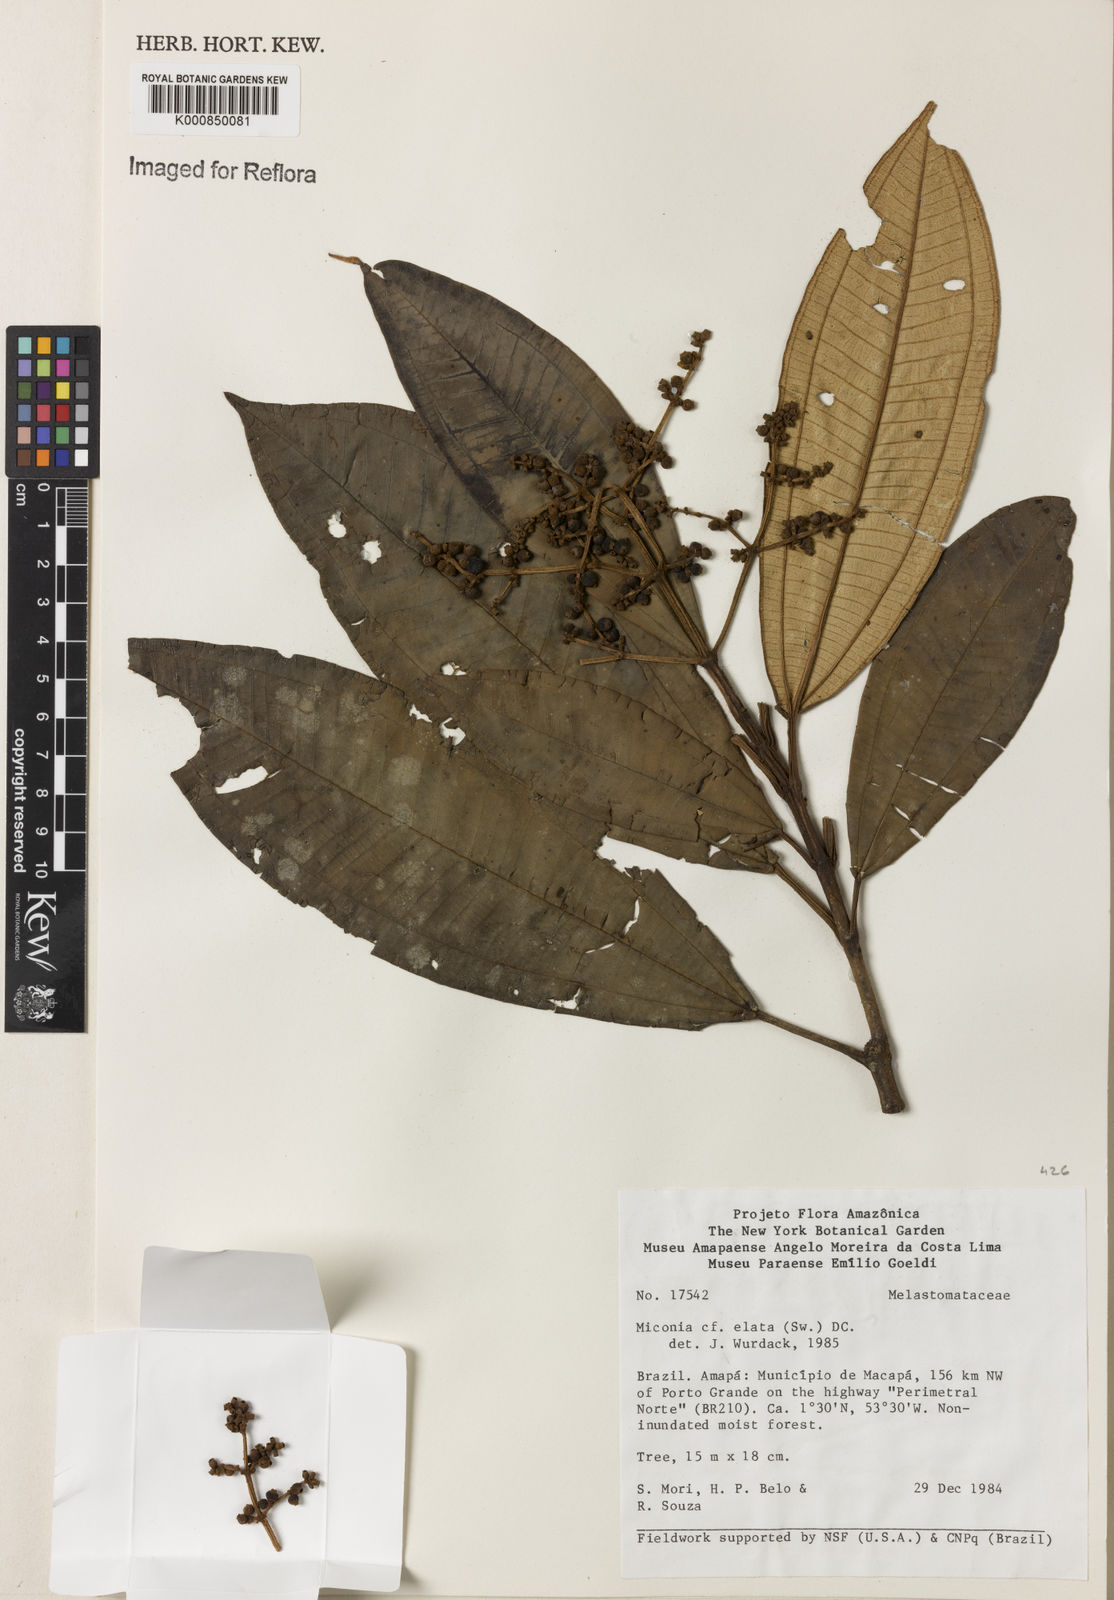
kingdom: Plantae
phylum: Tracheophyta
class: Magnoliopsida
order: Myrtales
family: Melastomataceae
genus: Miconia
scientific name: Miconia elata
